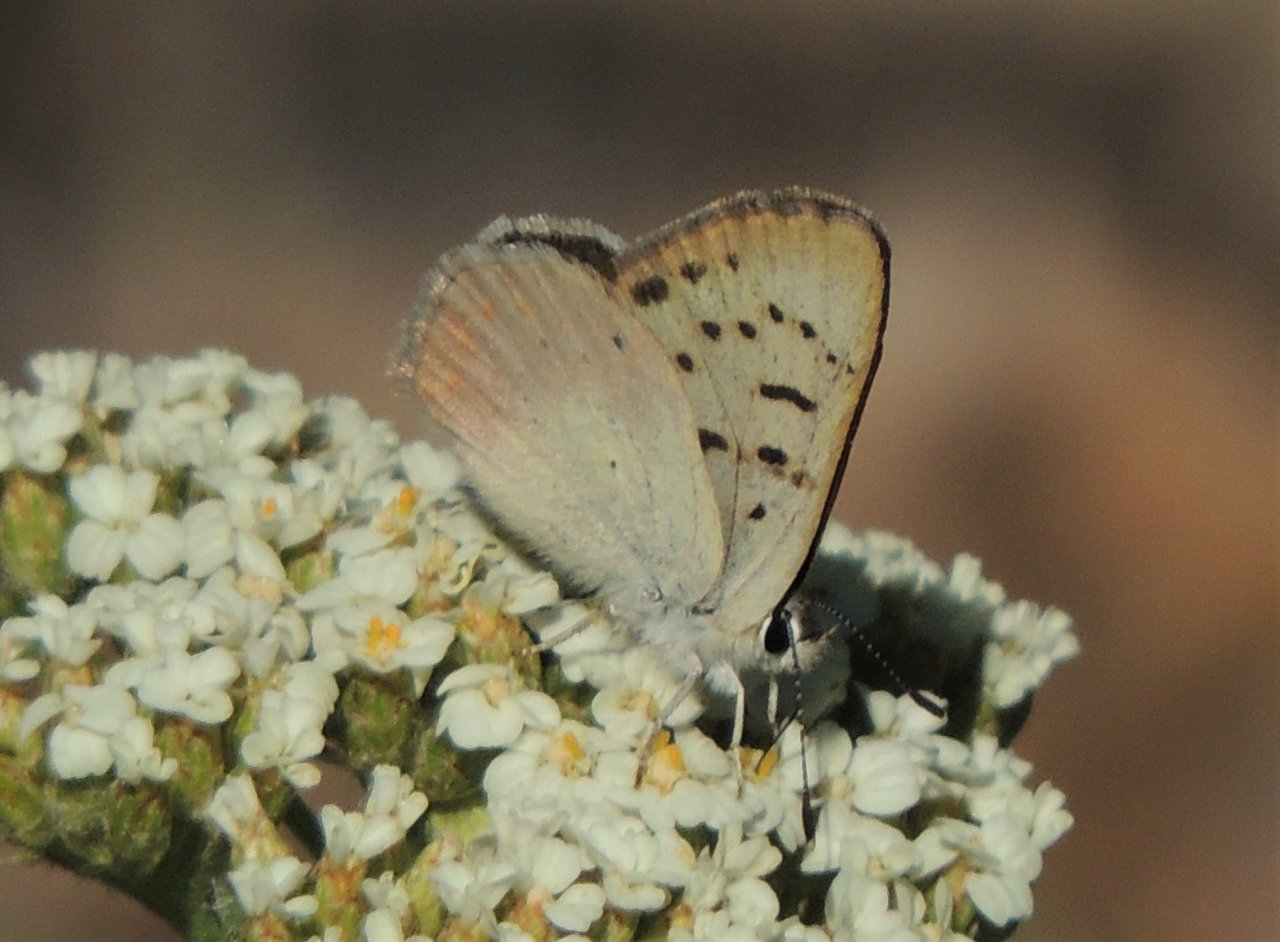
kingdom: Animalia
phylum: Arthropoda
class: Insecta
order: Lepidoptera
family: Lycaenidae
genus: Lycaena
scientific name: Lycaena nivalis
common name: Lilac-bordered Copper
